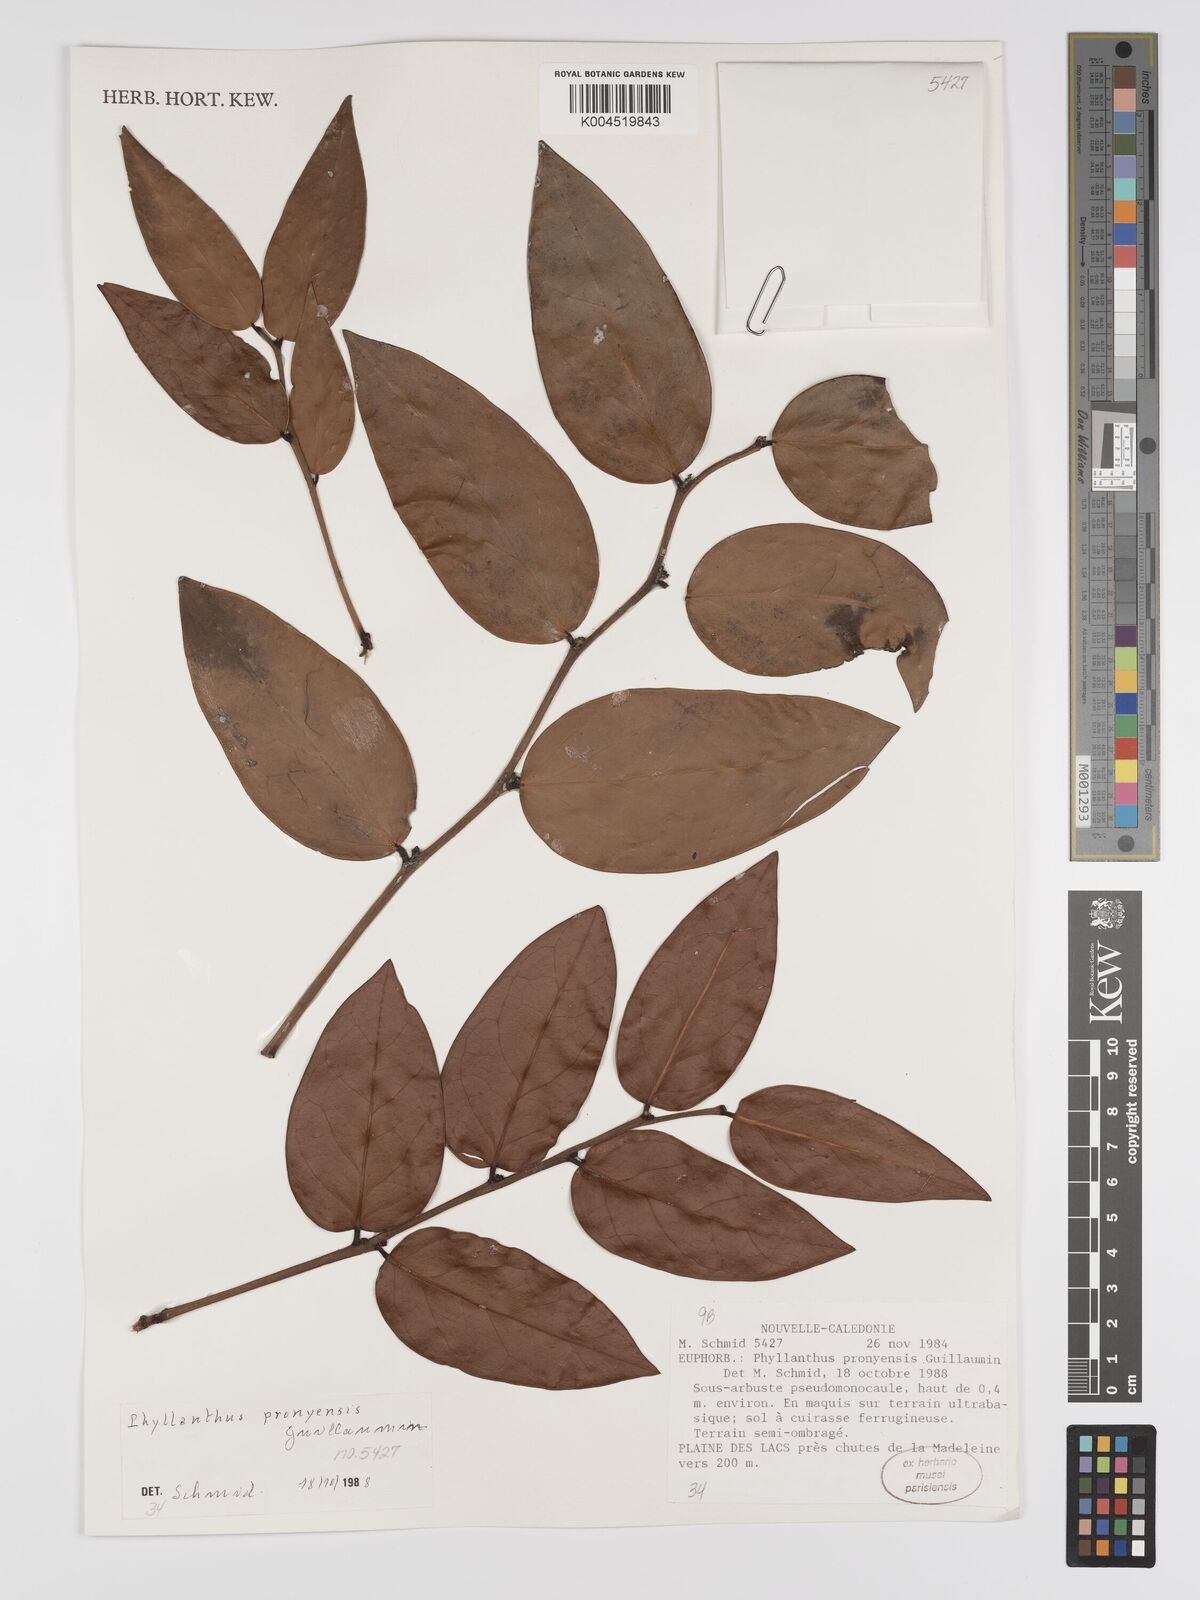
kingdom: Plantae
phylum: Tracheophyta
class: Magnoliopsida
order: Malpighiales
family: Phyllanthaceae
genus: Phyllanthus
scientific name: Phyllanthus pronyensis
